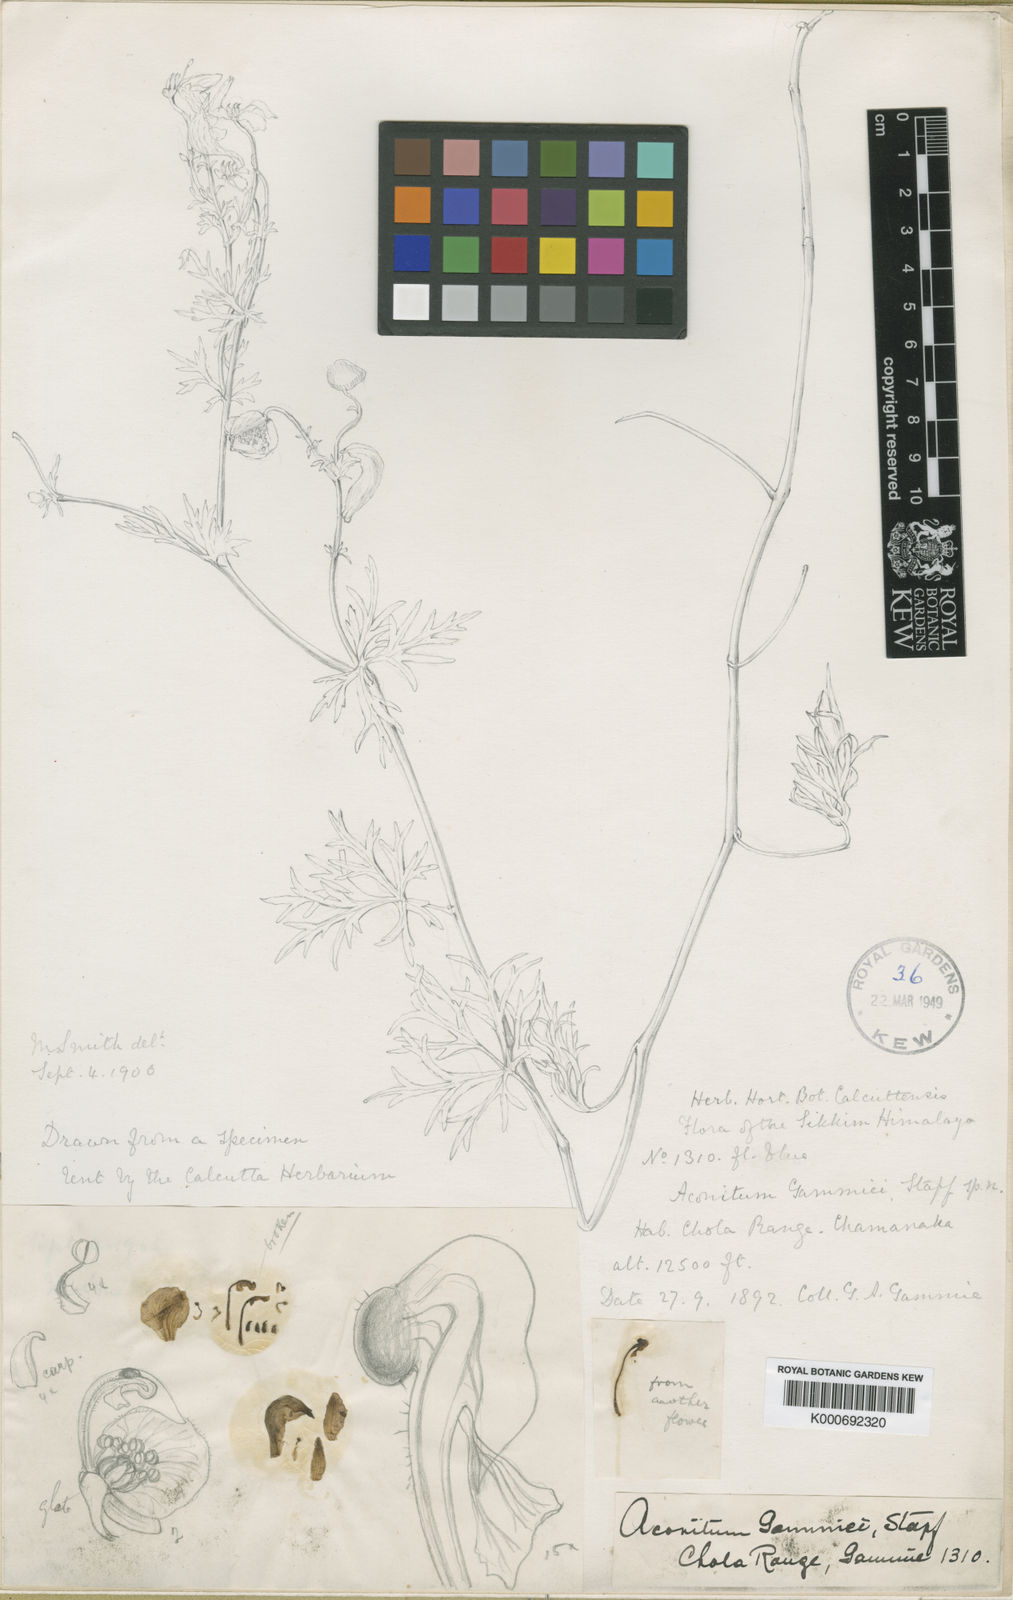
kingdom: Plantae
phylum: Tracheophyta
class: Magnoliopsida
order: Ranunculales
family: Ranunculaceae
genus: Aconitum
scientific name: Aconitum gammiei
